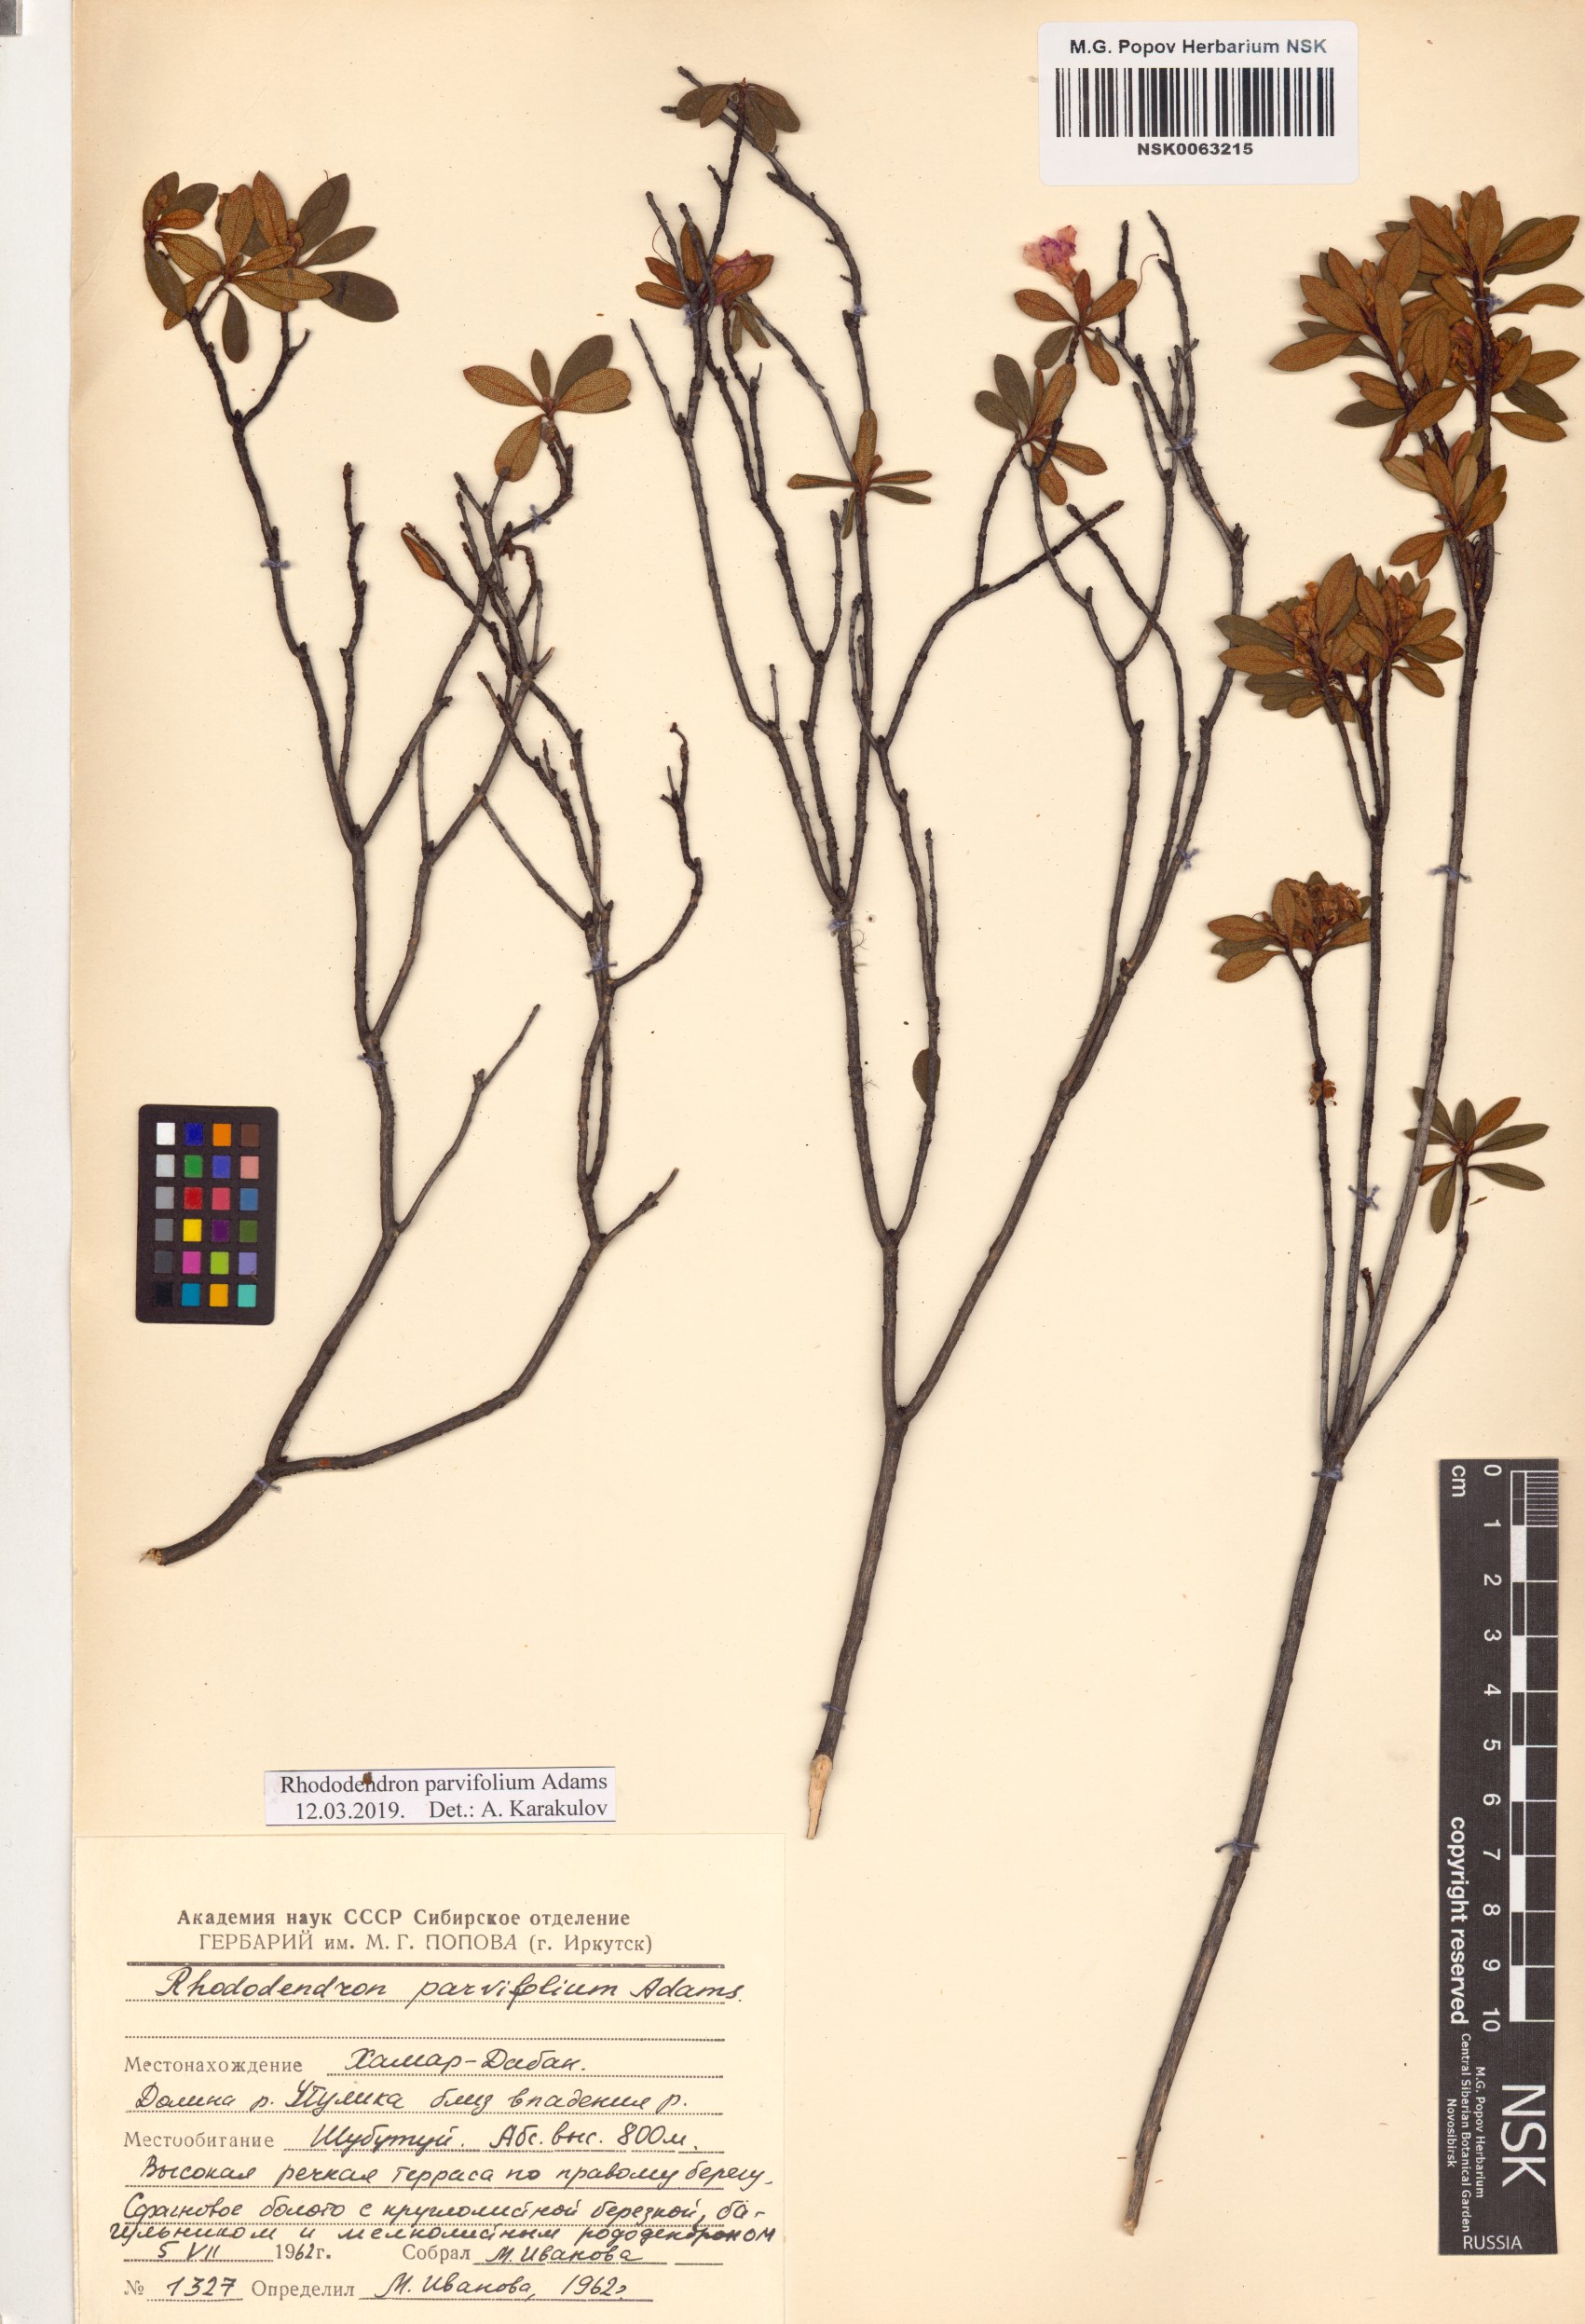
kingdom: Plantae
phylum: Tracheophyta
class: Magnoliopsida
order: Ericales
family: Ericaceae
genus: Rhododendron
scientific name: Rhododendron parvifolium
